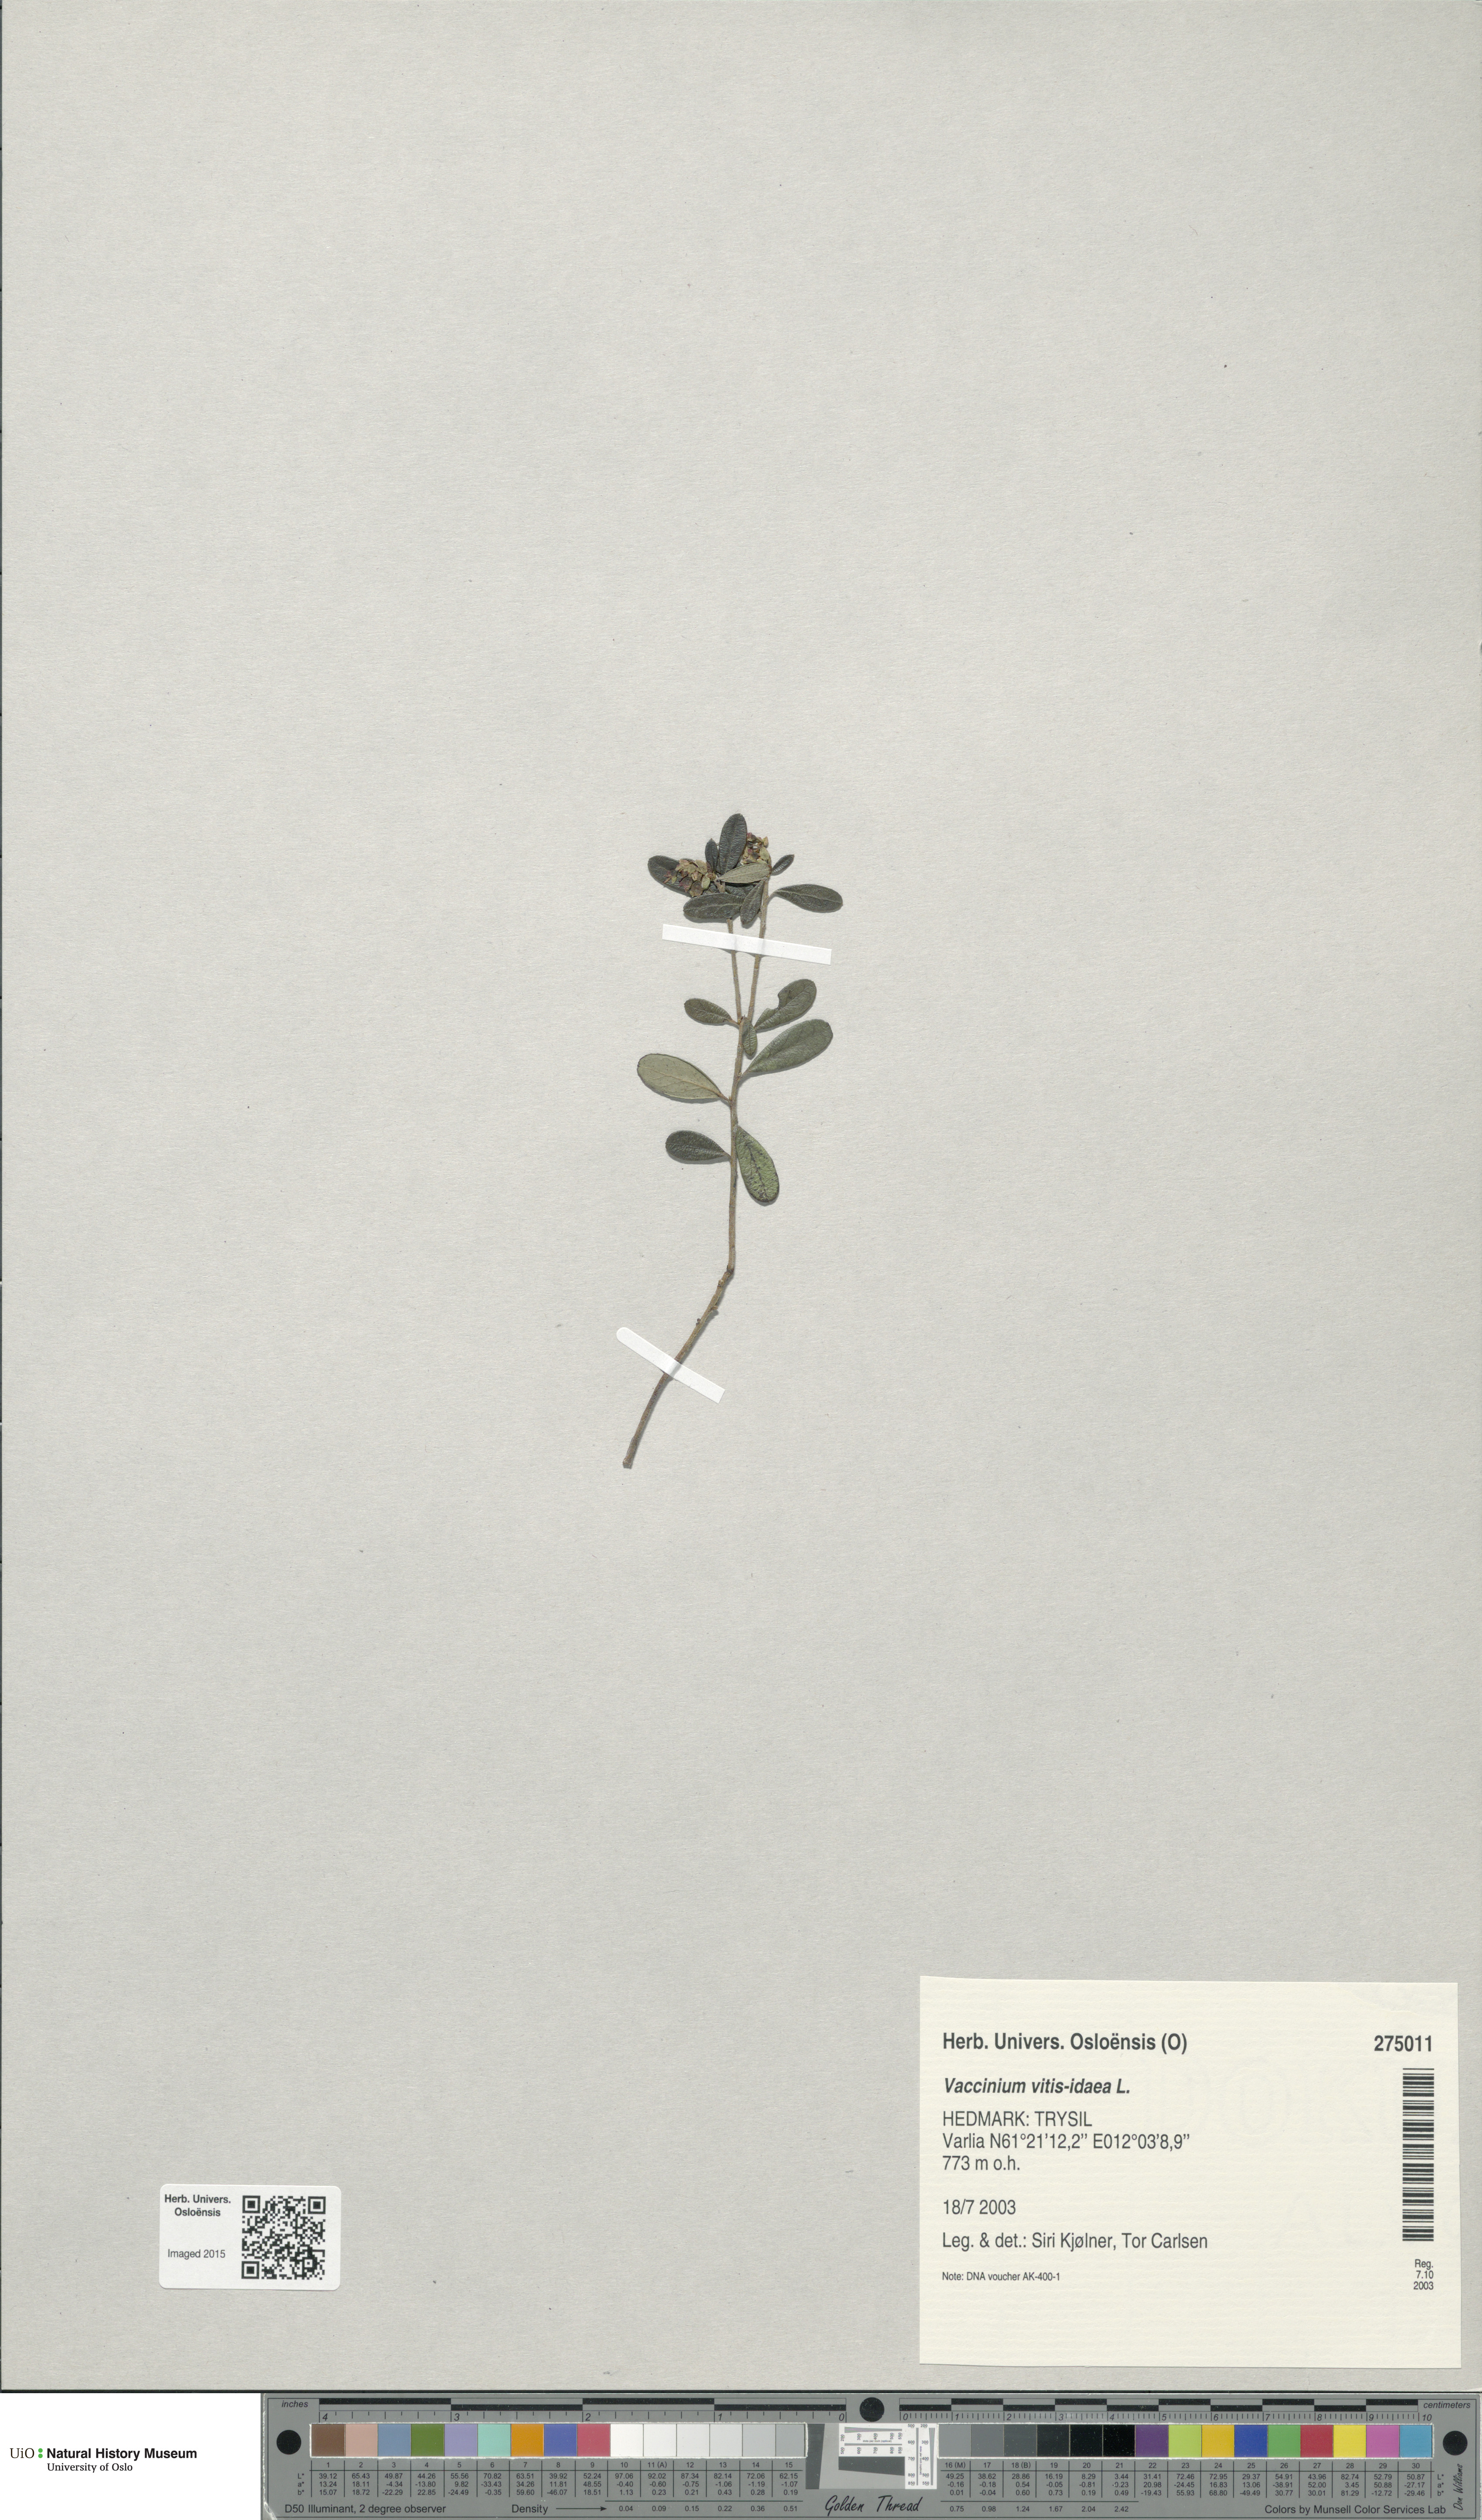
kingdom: Plantae
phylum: Tracheophyta
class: Magnoliopsida
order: Ericales
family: Ericaceae
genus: Vaccinium
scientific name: Vaccinium vitis-idaea
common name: Cowberry
